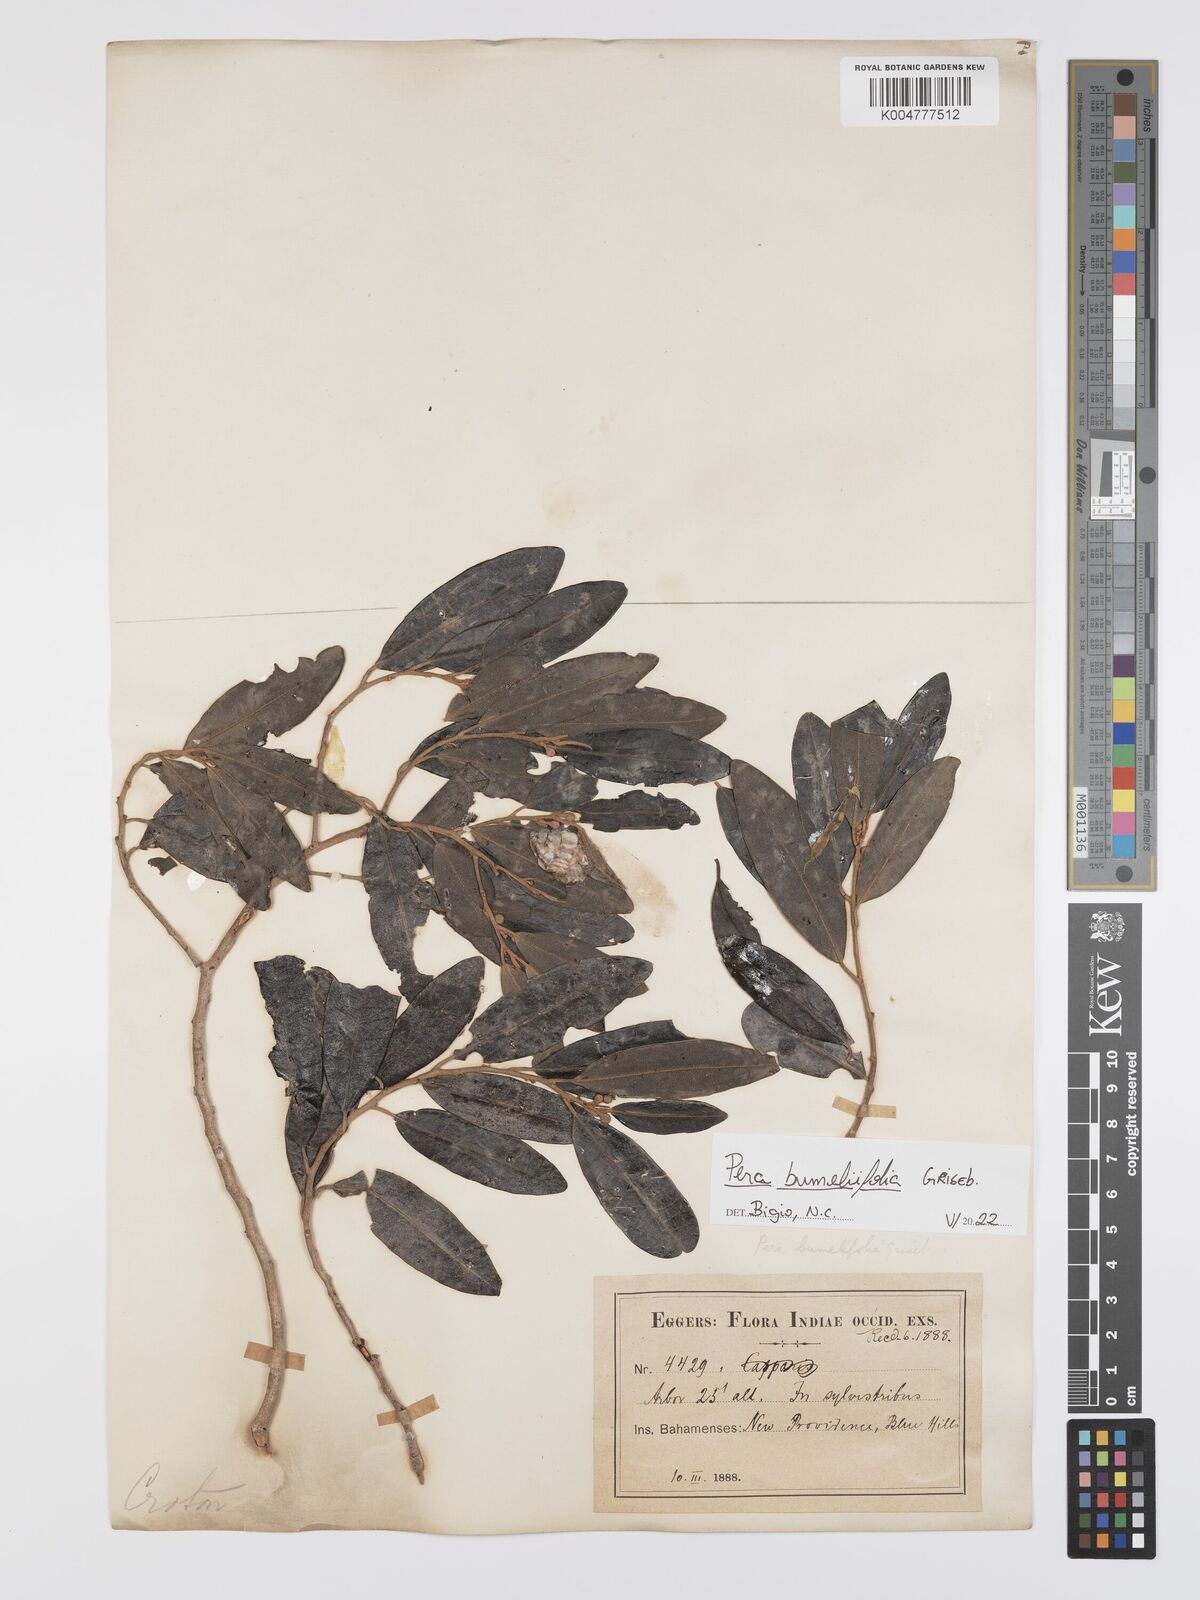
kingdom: Plantae
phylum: Tracheophyta
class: Magnoliopsida
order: Malpighiales
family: Peraceae
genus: Pera
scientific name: Pera
